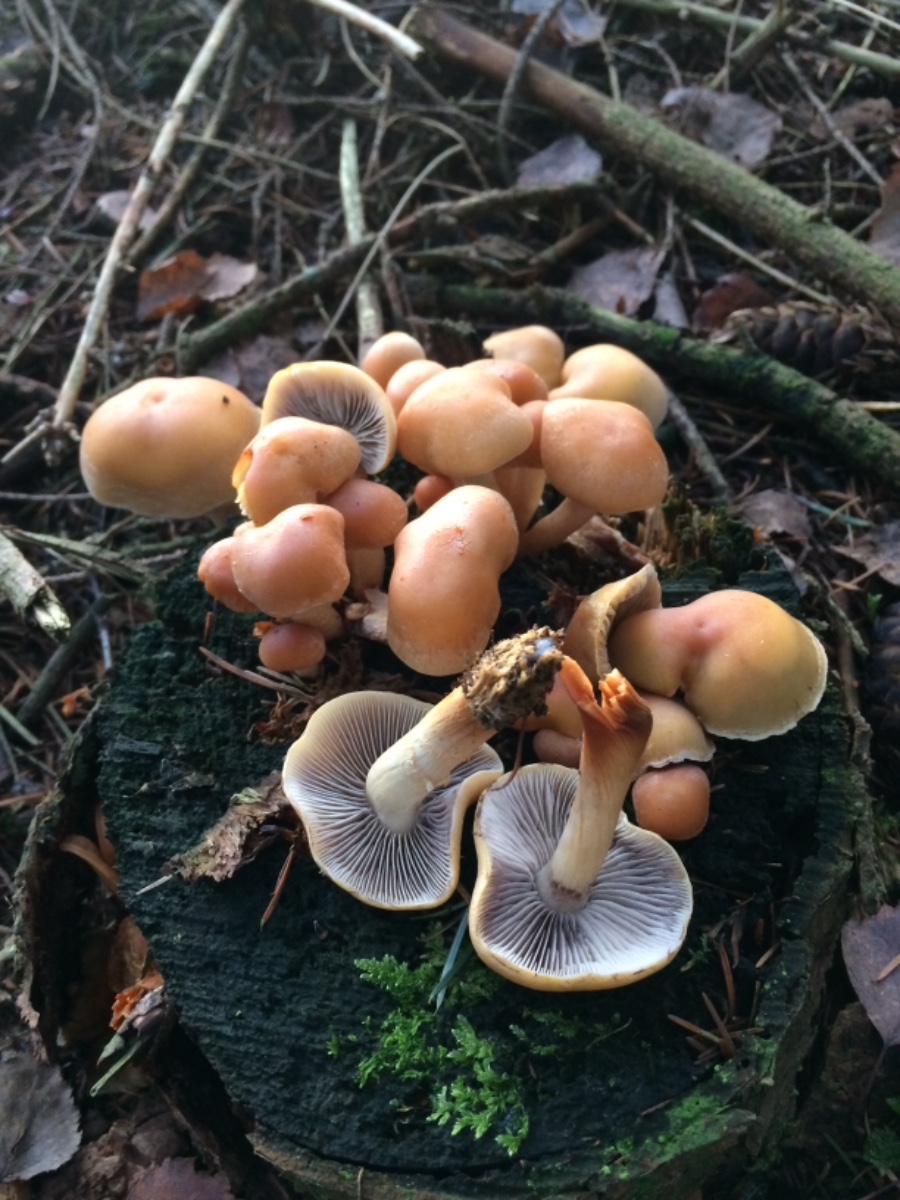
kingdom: Fungi
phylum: Basidiomycota
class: Agaricomycetes
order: Agaricales
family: Strophariaceae
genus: Hypholoma
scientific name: Hypholoma capnoides
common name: gran-svovlhat
